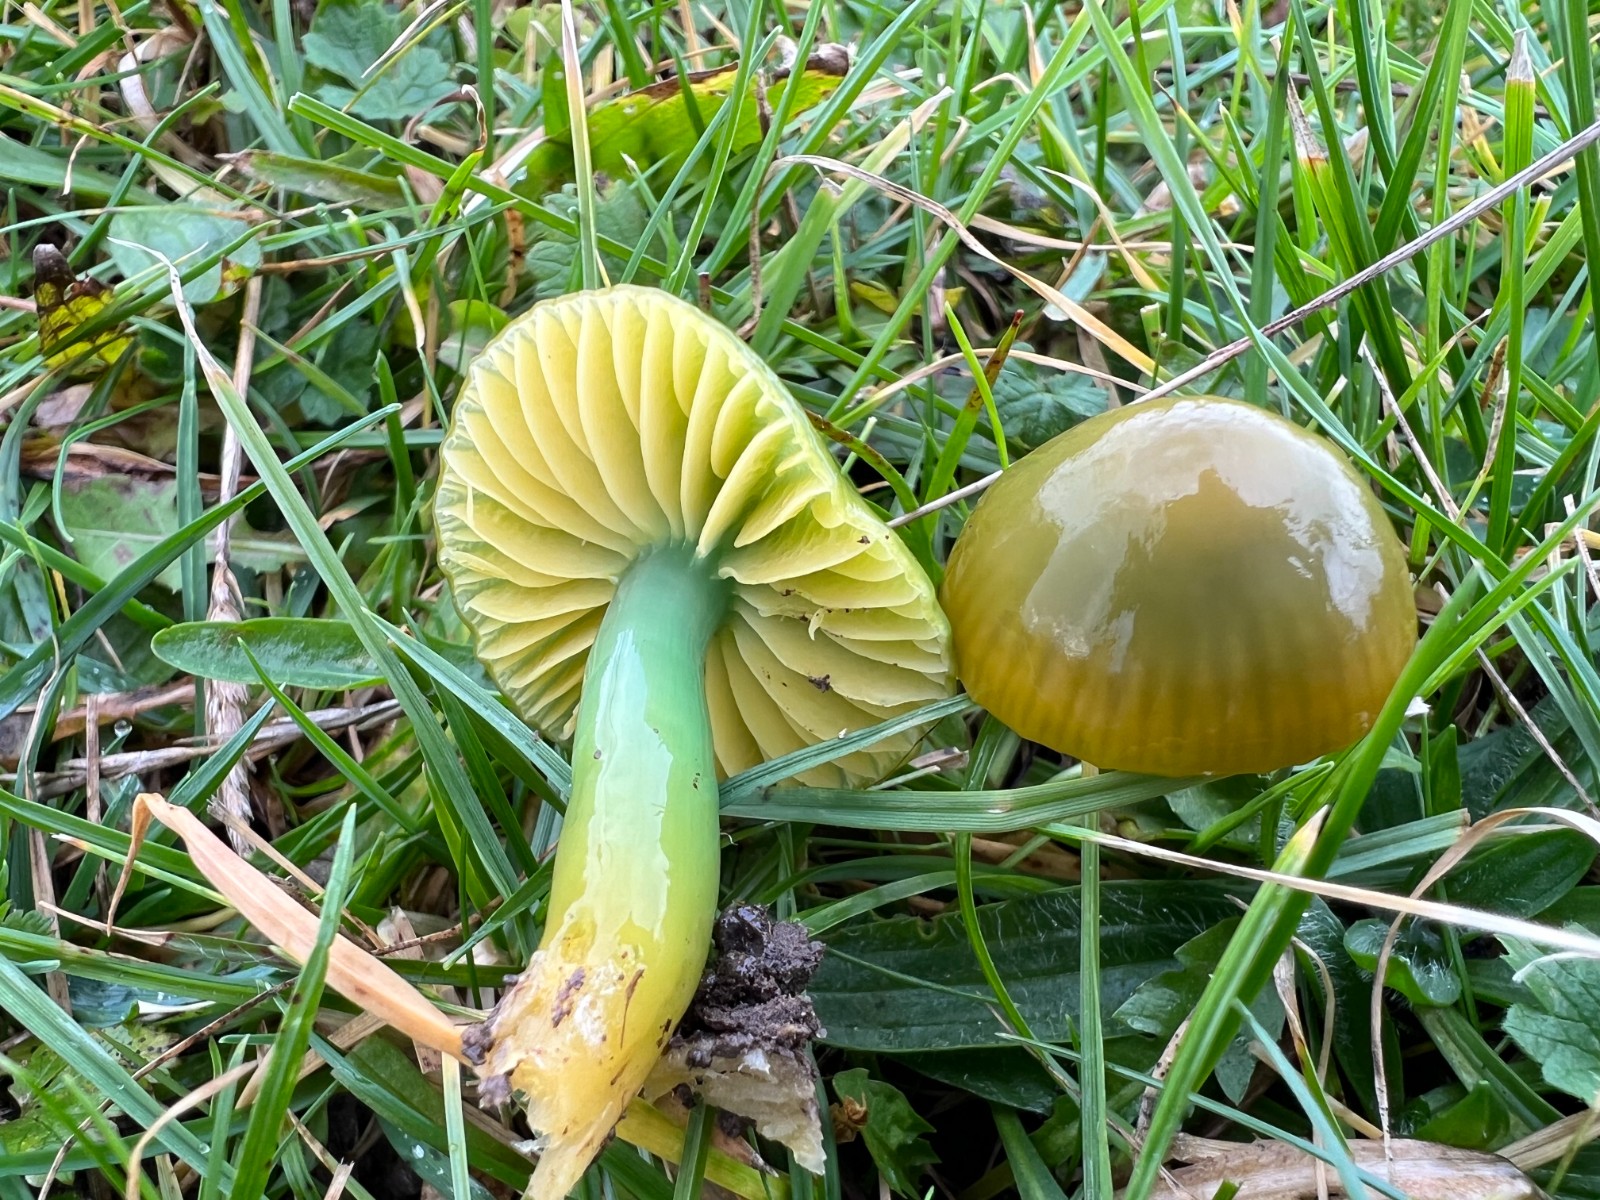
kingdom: Fungi
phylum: Basidiomycota
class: Agaricomycetes
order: Agaricales
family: Hygrophoraceae
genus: Gliophorus
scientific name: Gliophorus psittacinus
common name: papegøje-vokshat
